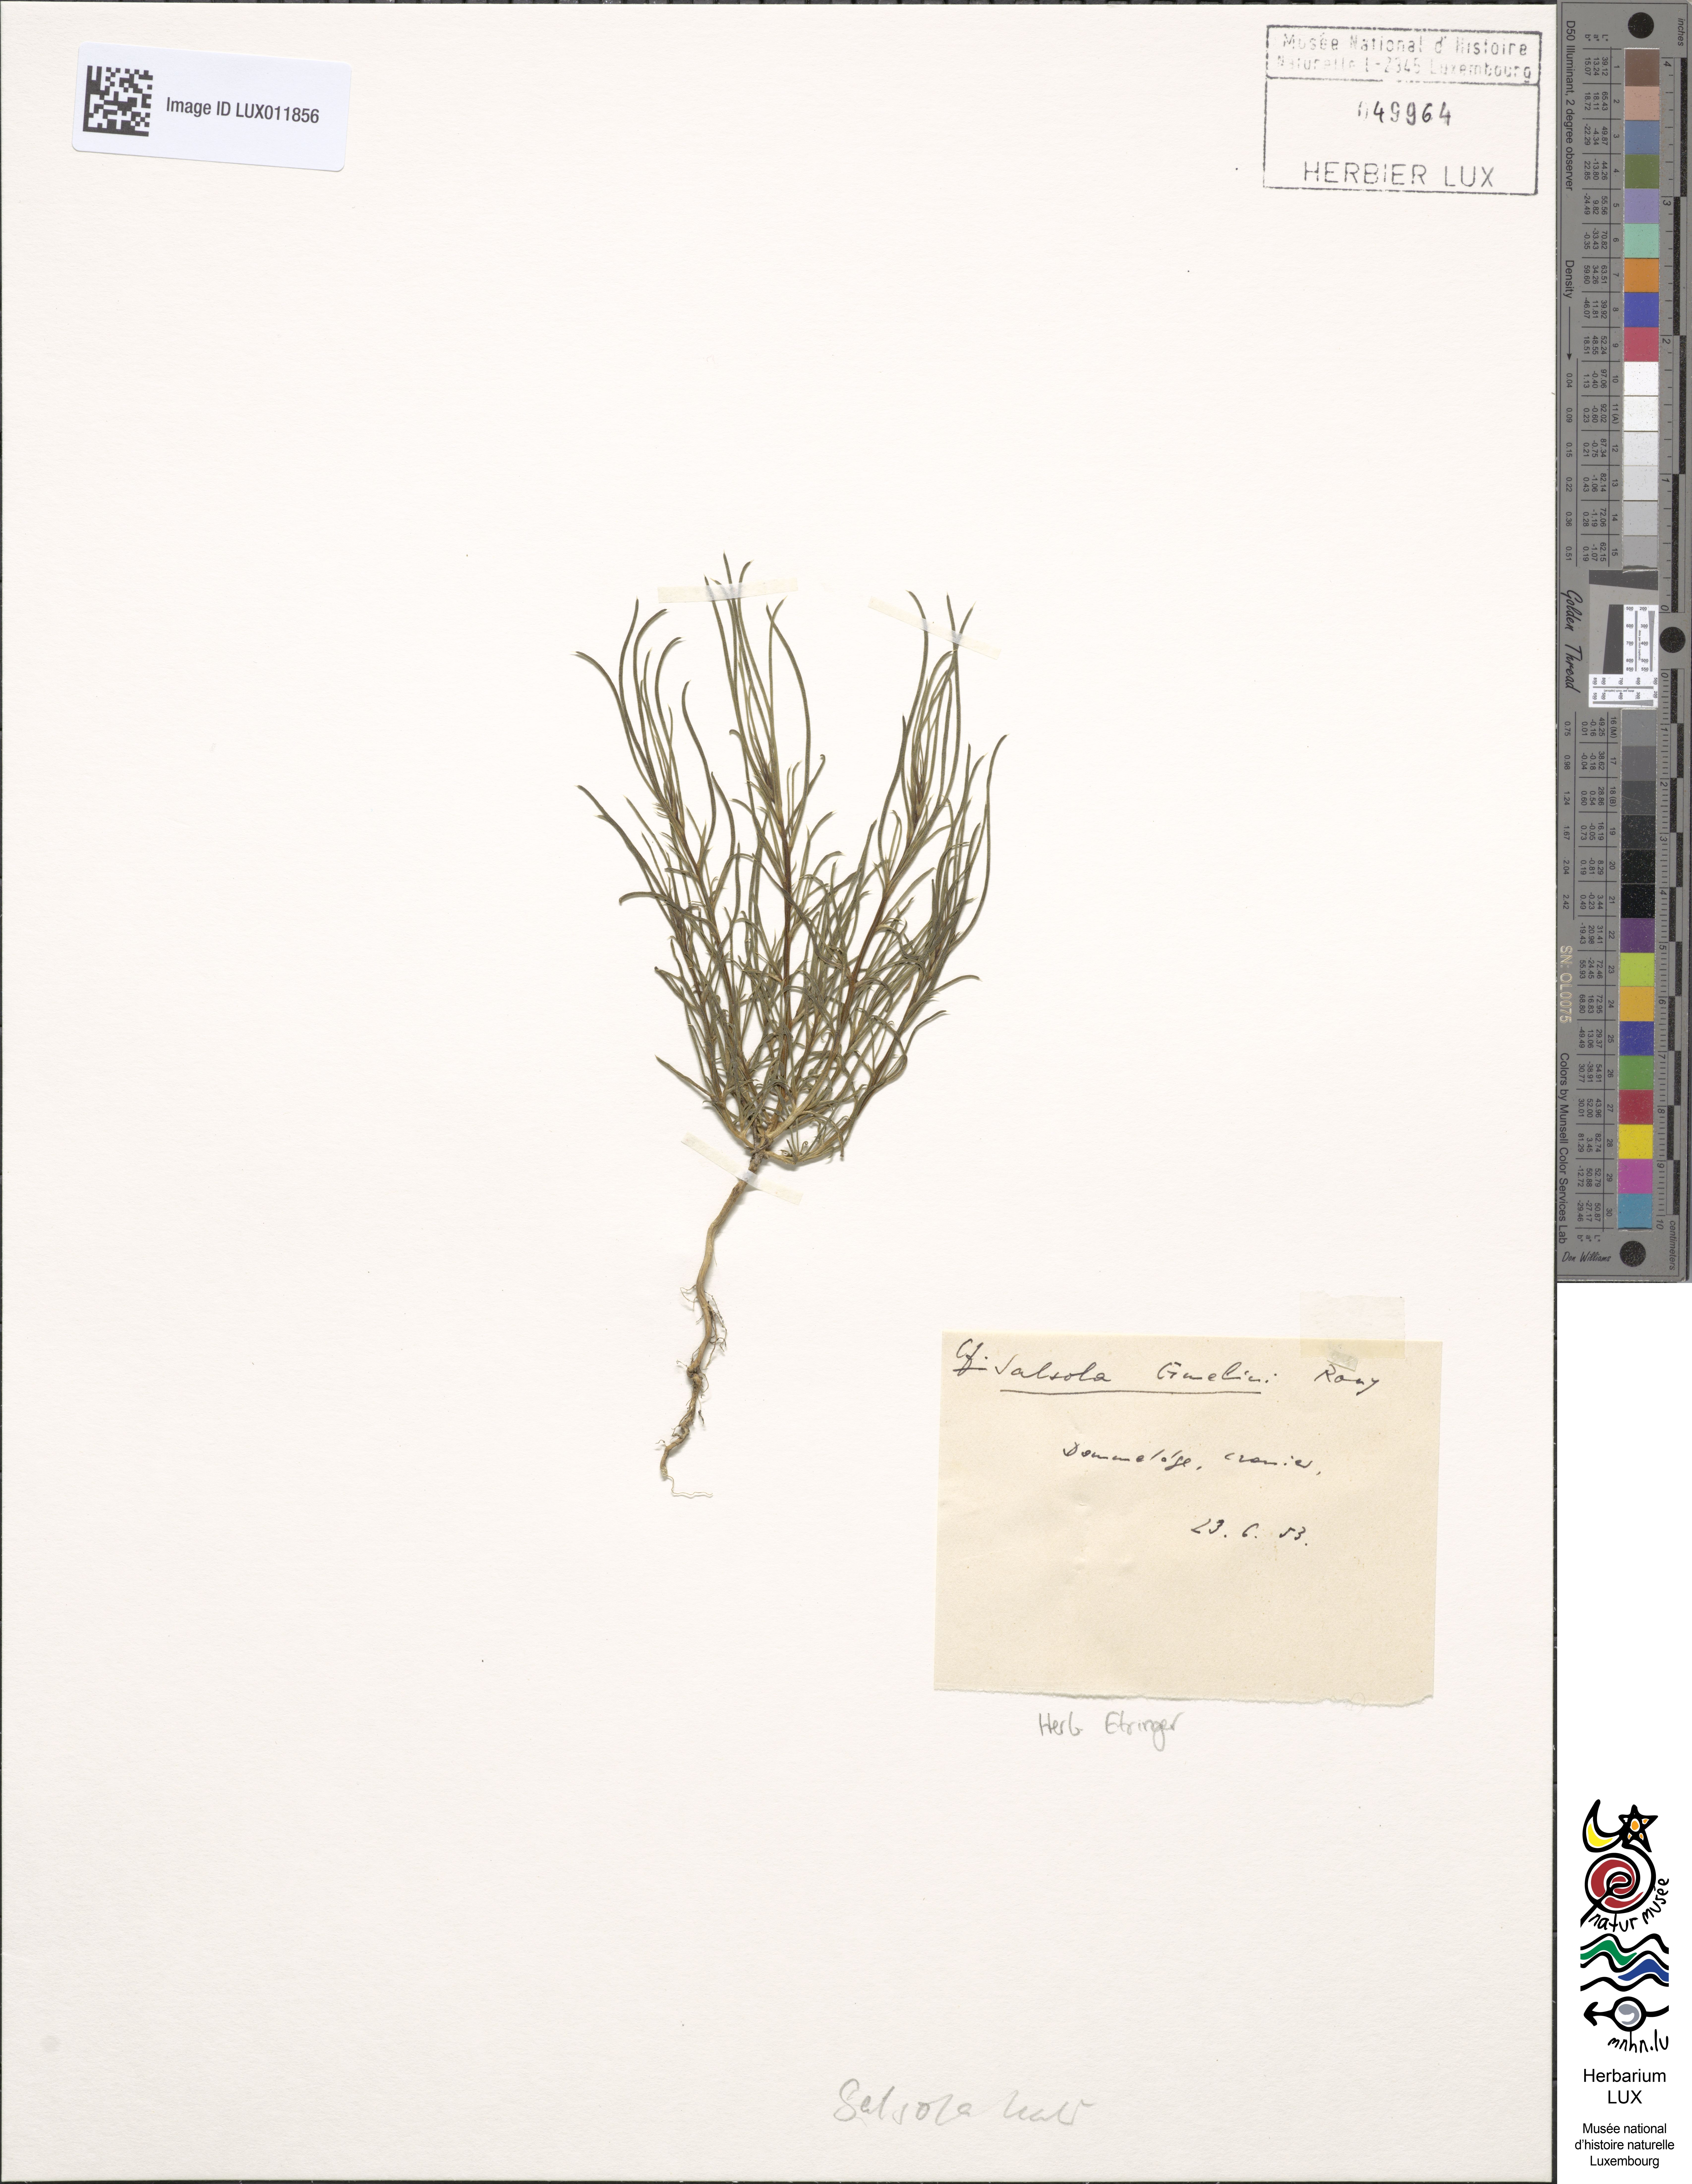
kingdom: Plantae
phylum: Tracheophyta
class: Magnoliopsida
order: Caryophyllales
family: Amaranthaceae
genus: Salsola
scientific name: Salsola kali
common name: Saltwort
